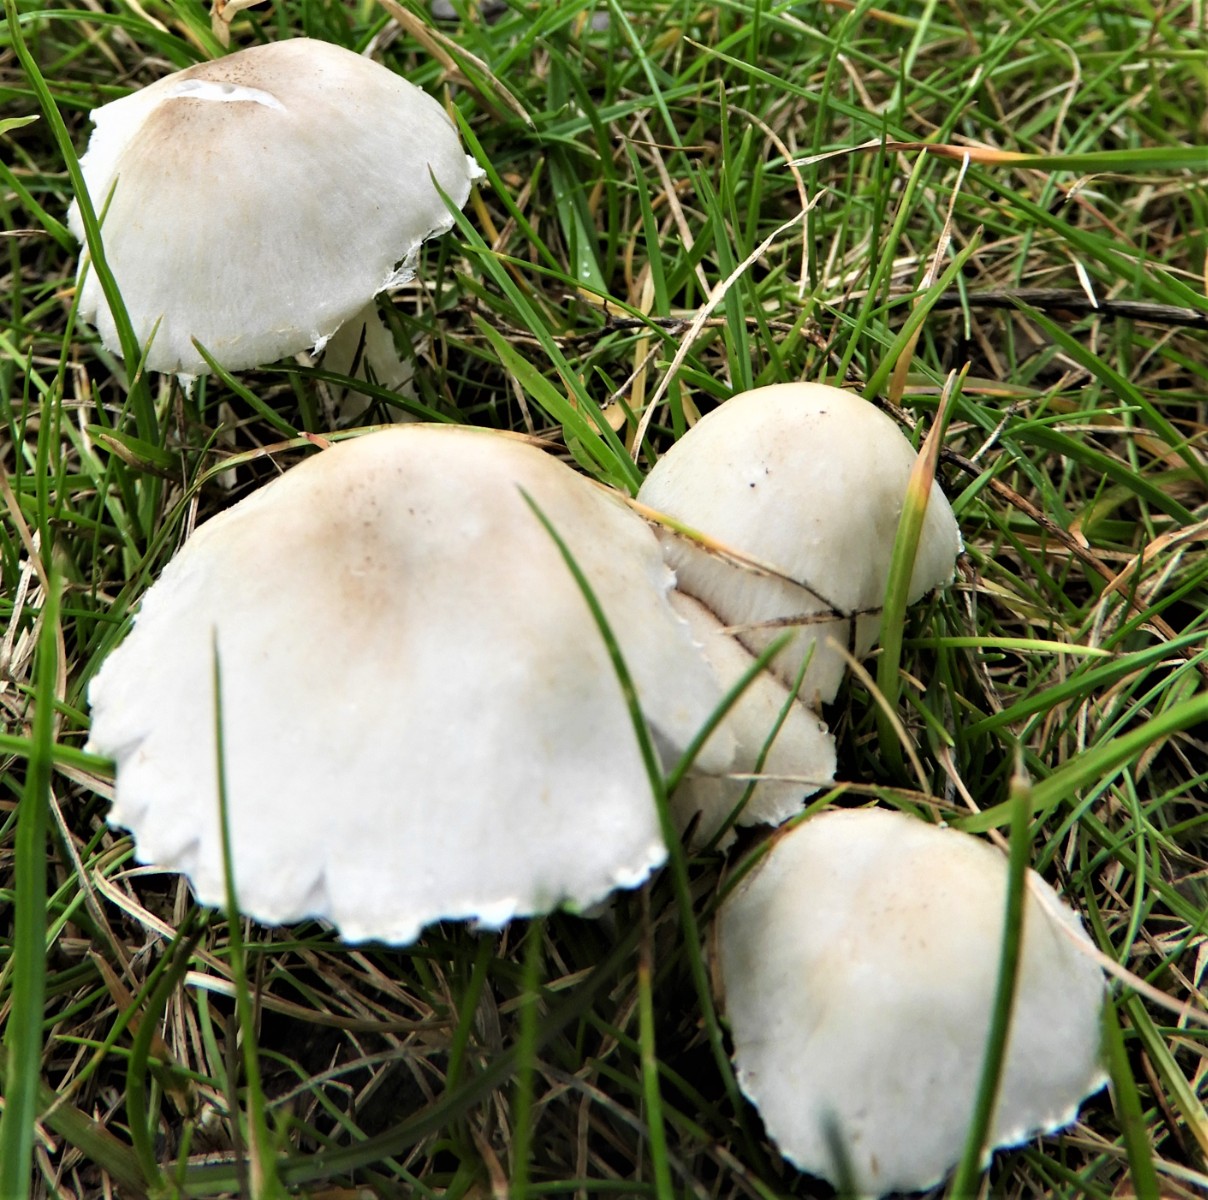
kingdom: Fungi
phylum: Basidiomycota
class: Agaricomycetes
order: Agaricales
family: Psathyrellaceae
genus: Candolleomyces
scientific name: Candolleomyces candolleanus
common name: Candolles mørkhat
